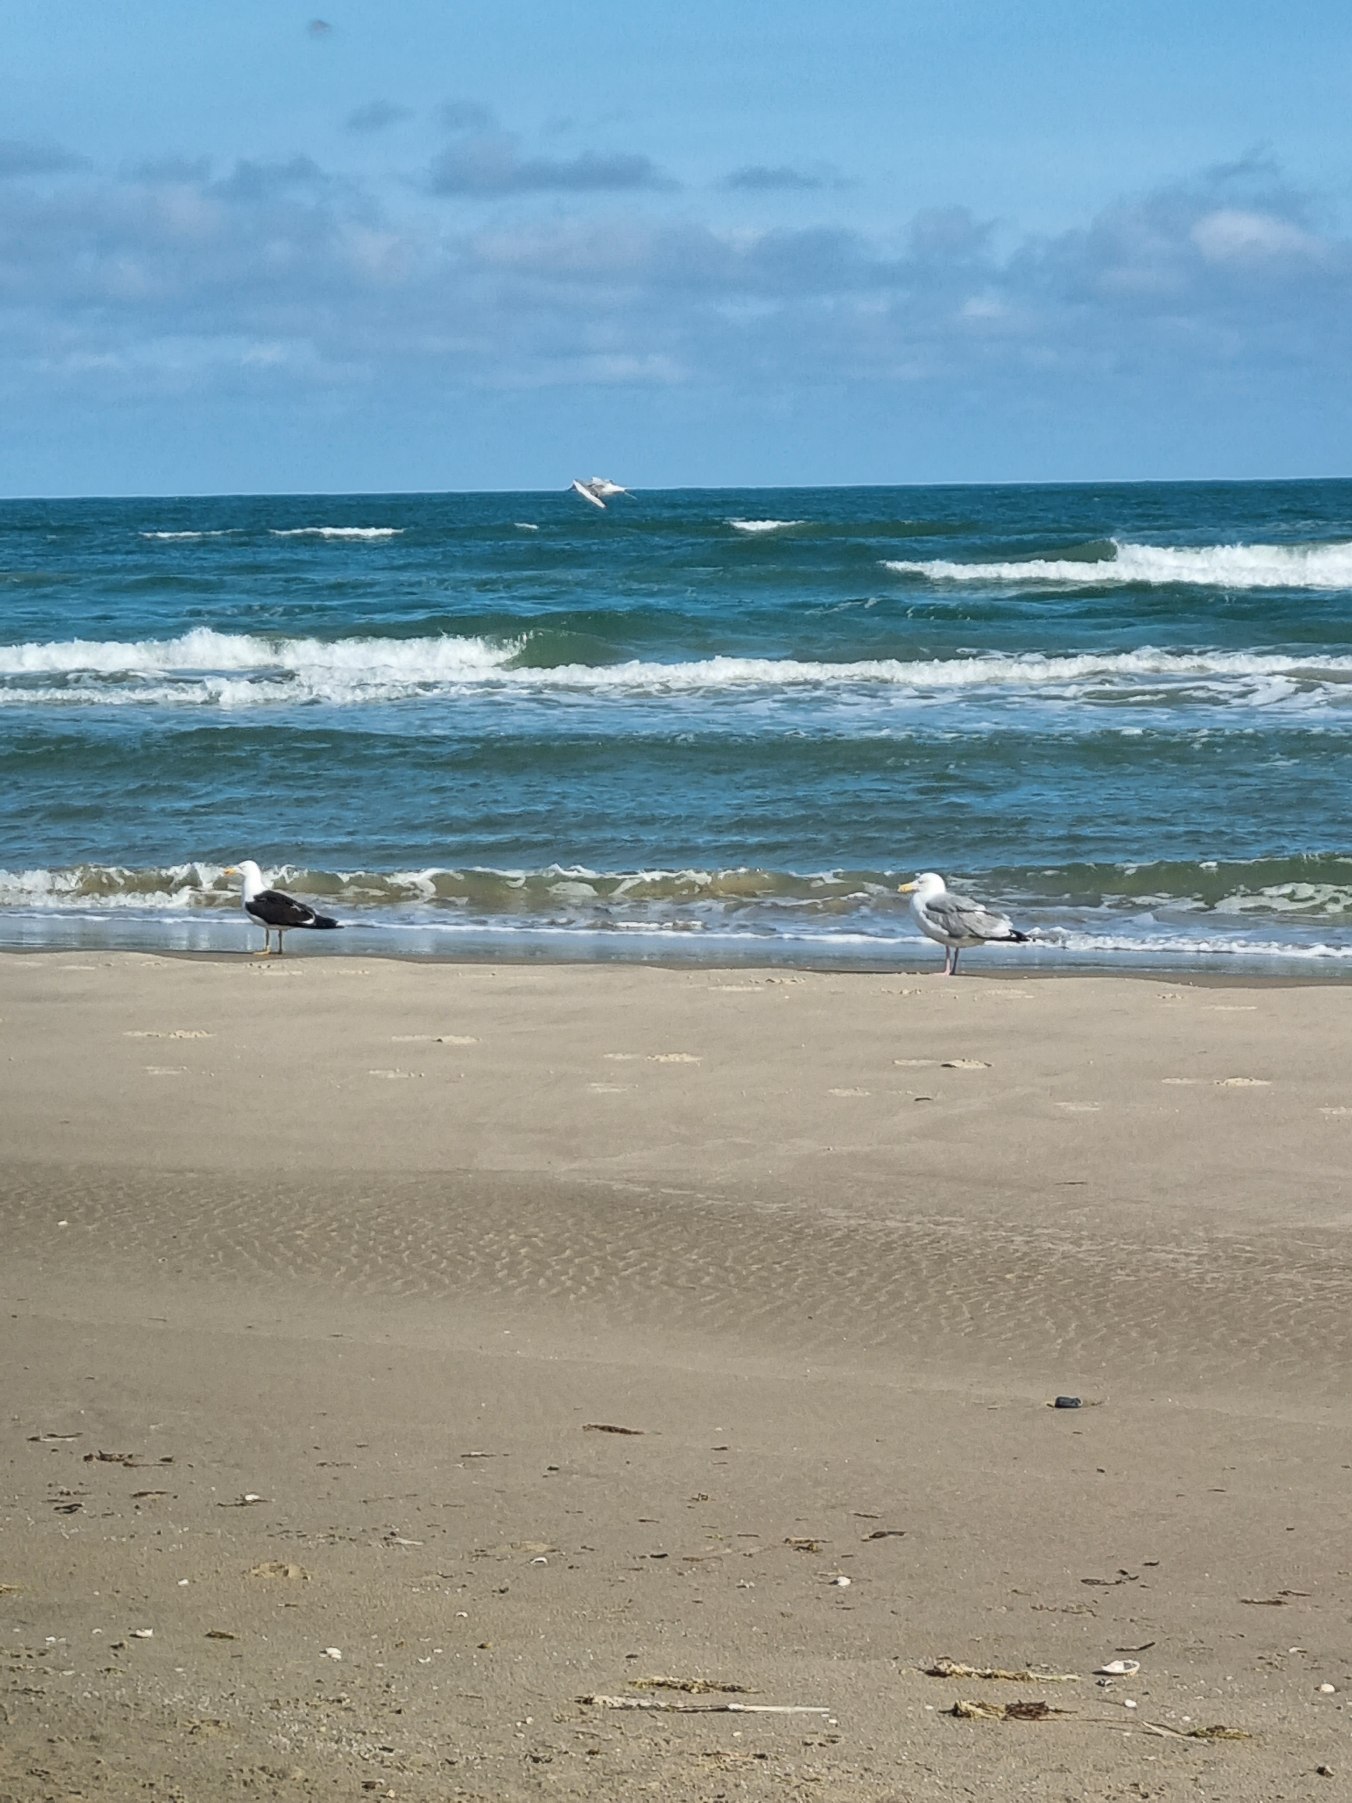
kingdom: Animalia
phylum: Chordata
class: Aves
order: Charadriiformes
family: Laridae
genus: Larus
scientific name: Larus fuscus
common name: Sildemåge
